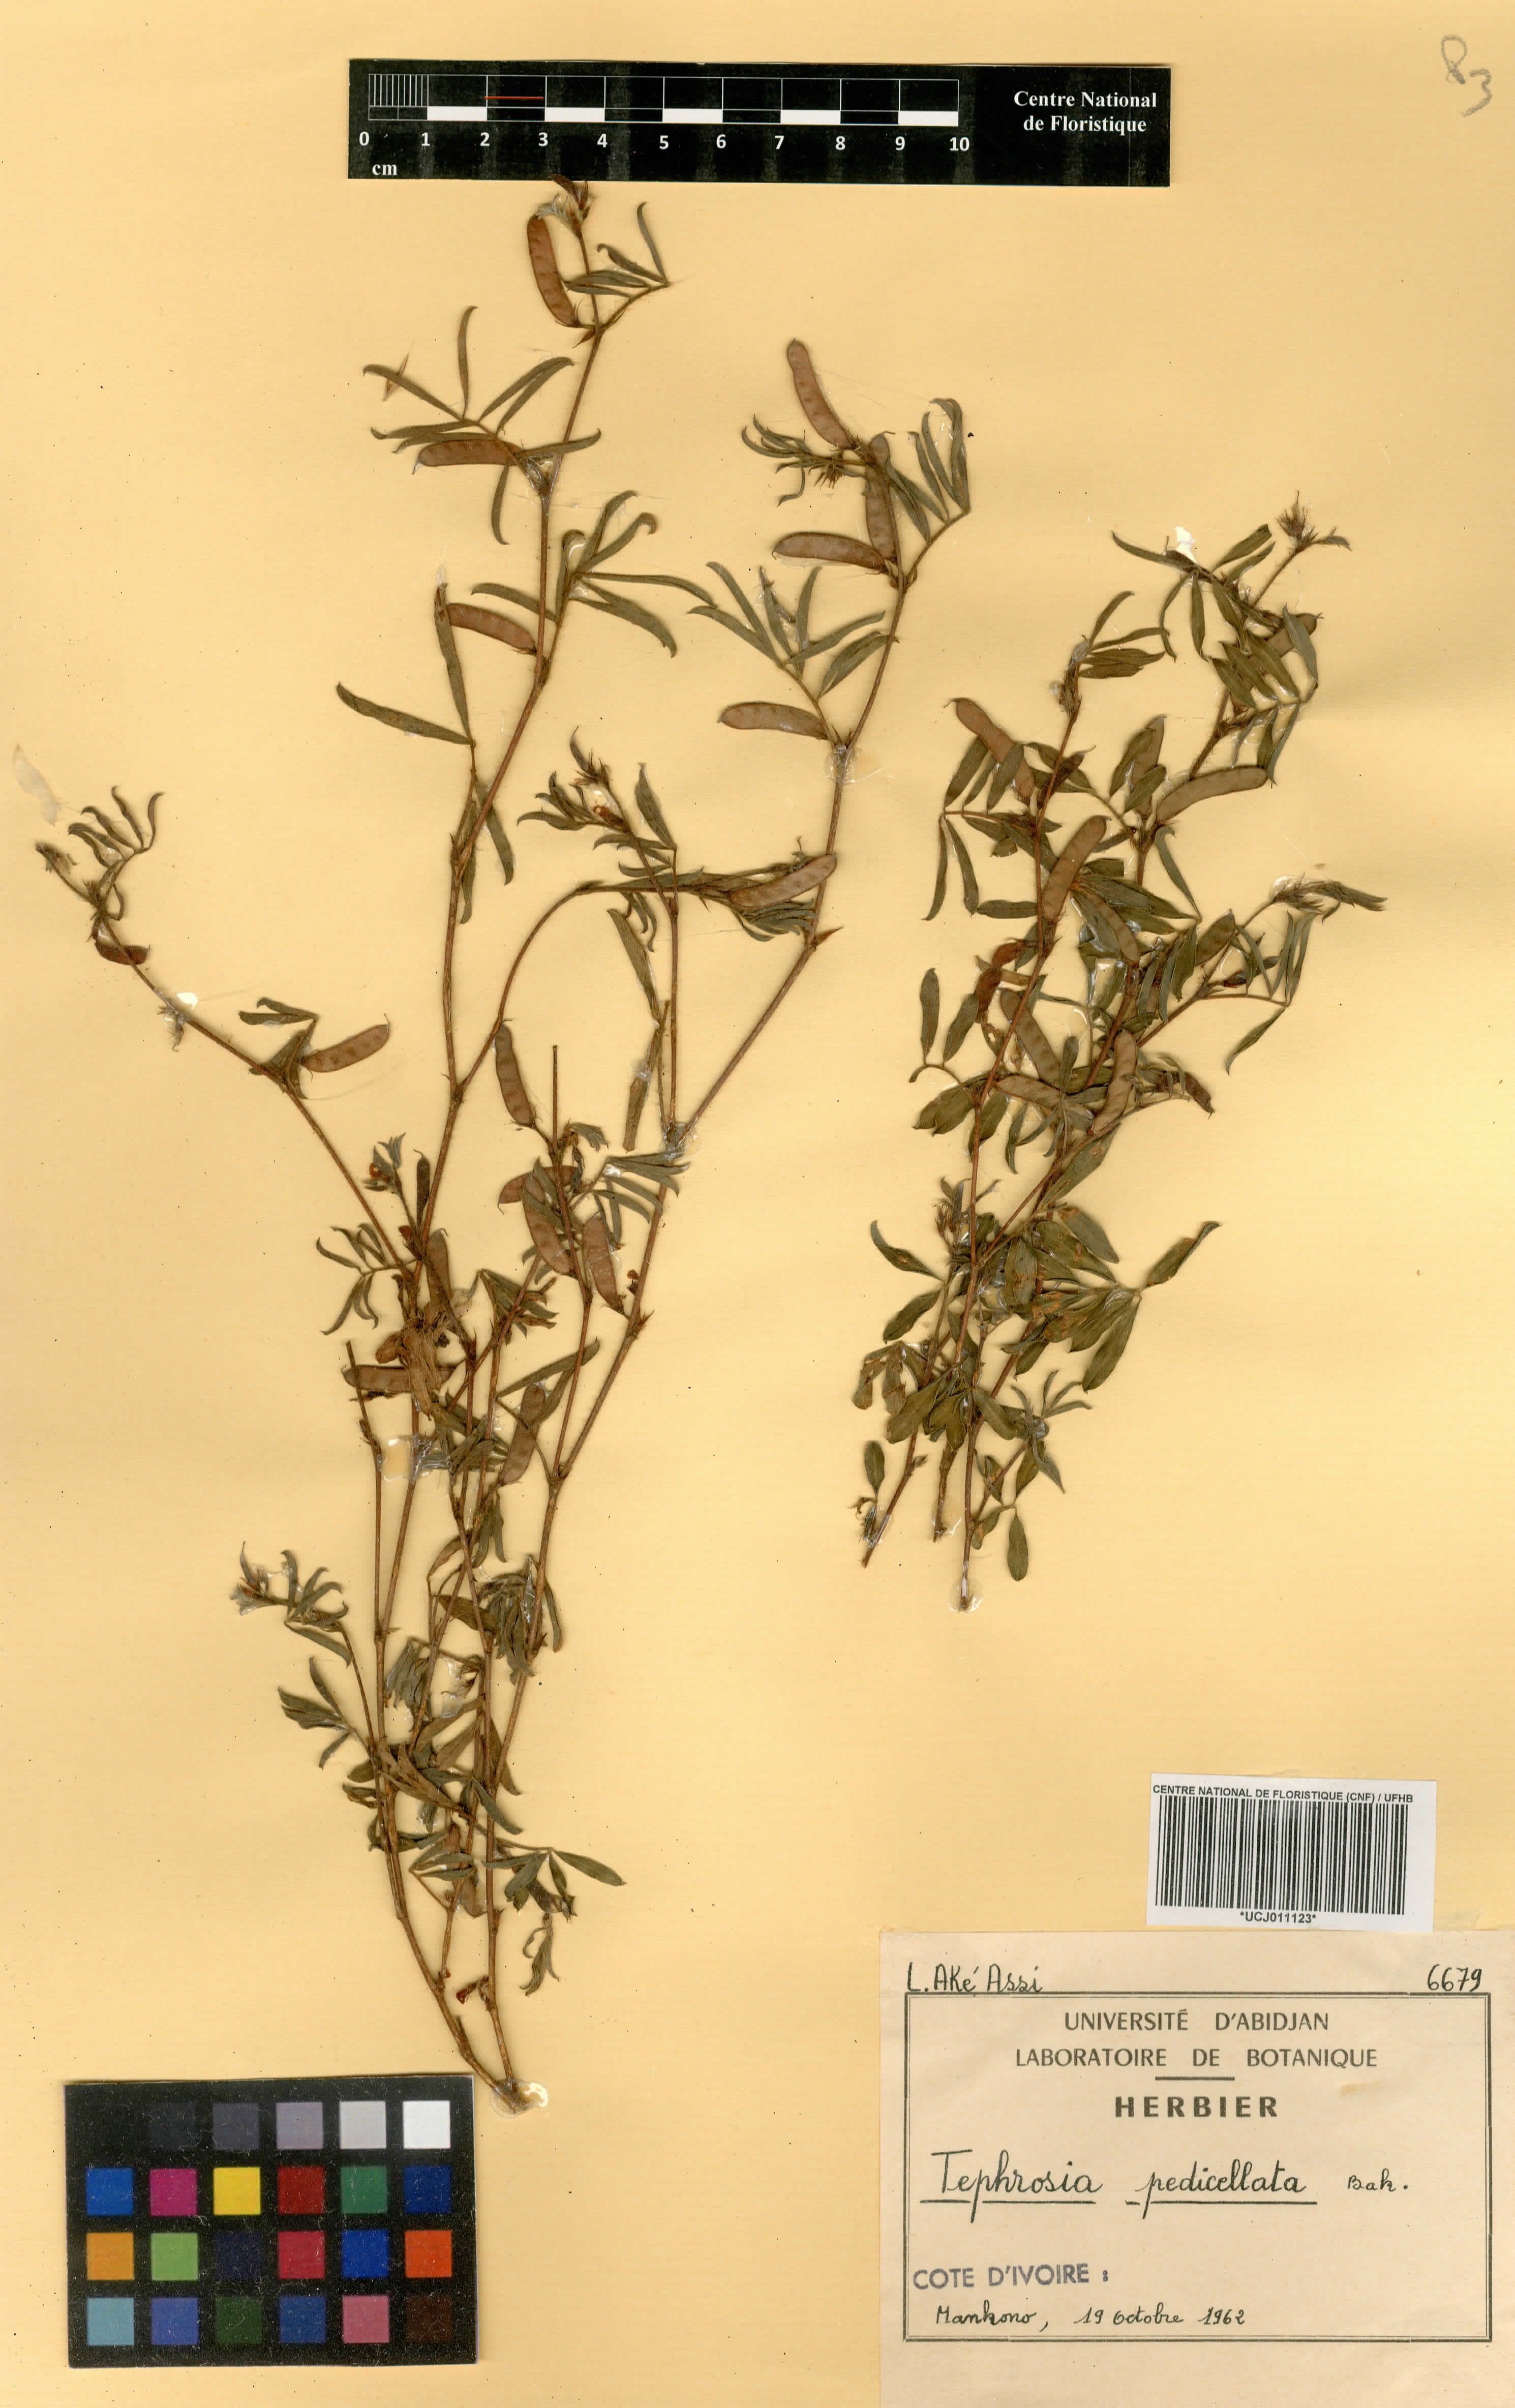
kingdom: Plantae
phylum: Tracheophyta
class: Magnoliopsida
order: Fabales
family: Fabaceae
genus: Tephrosia
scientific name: Tephrosia pedicellata
